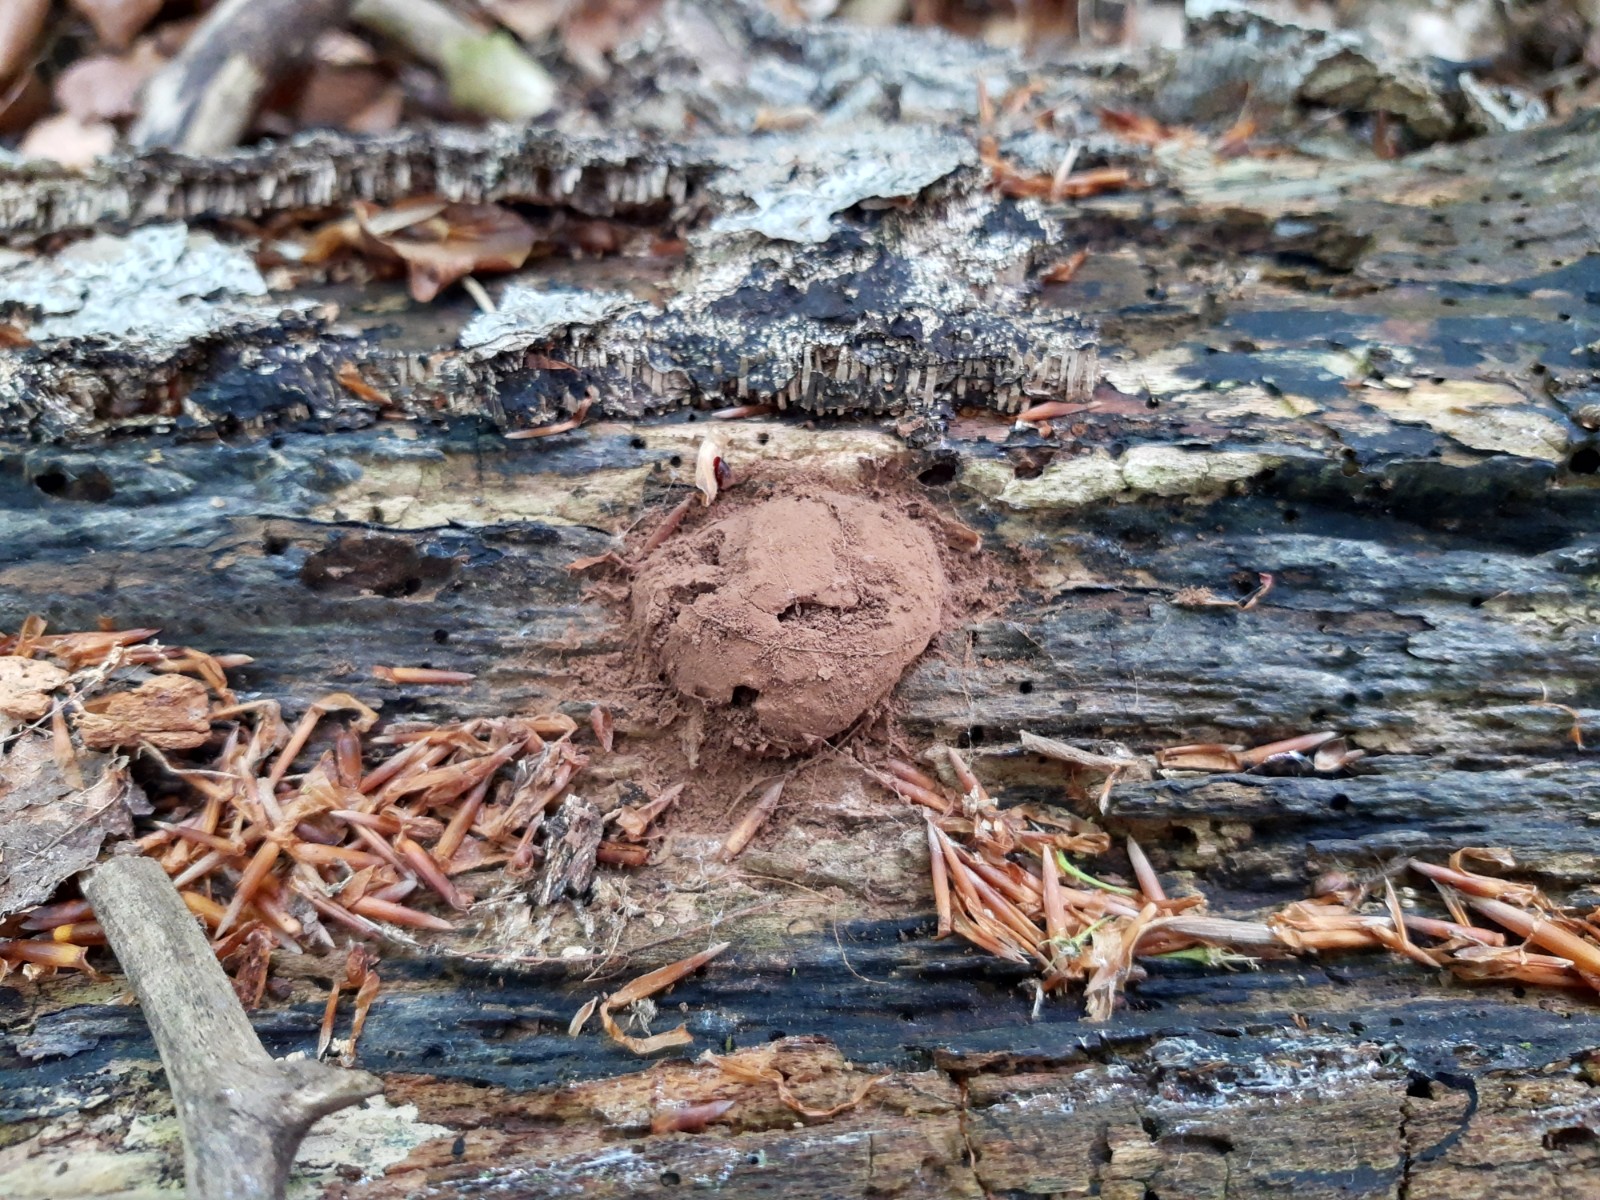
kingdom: Protozoa
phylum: Mycetozoa
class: Myxomycetes
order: Cribrariales
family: Tubiferaceae
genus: Reticularia
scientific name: Reticularia lycoperdon
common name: skinnende støvpude
